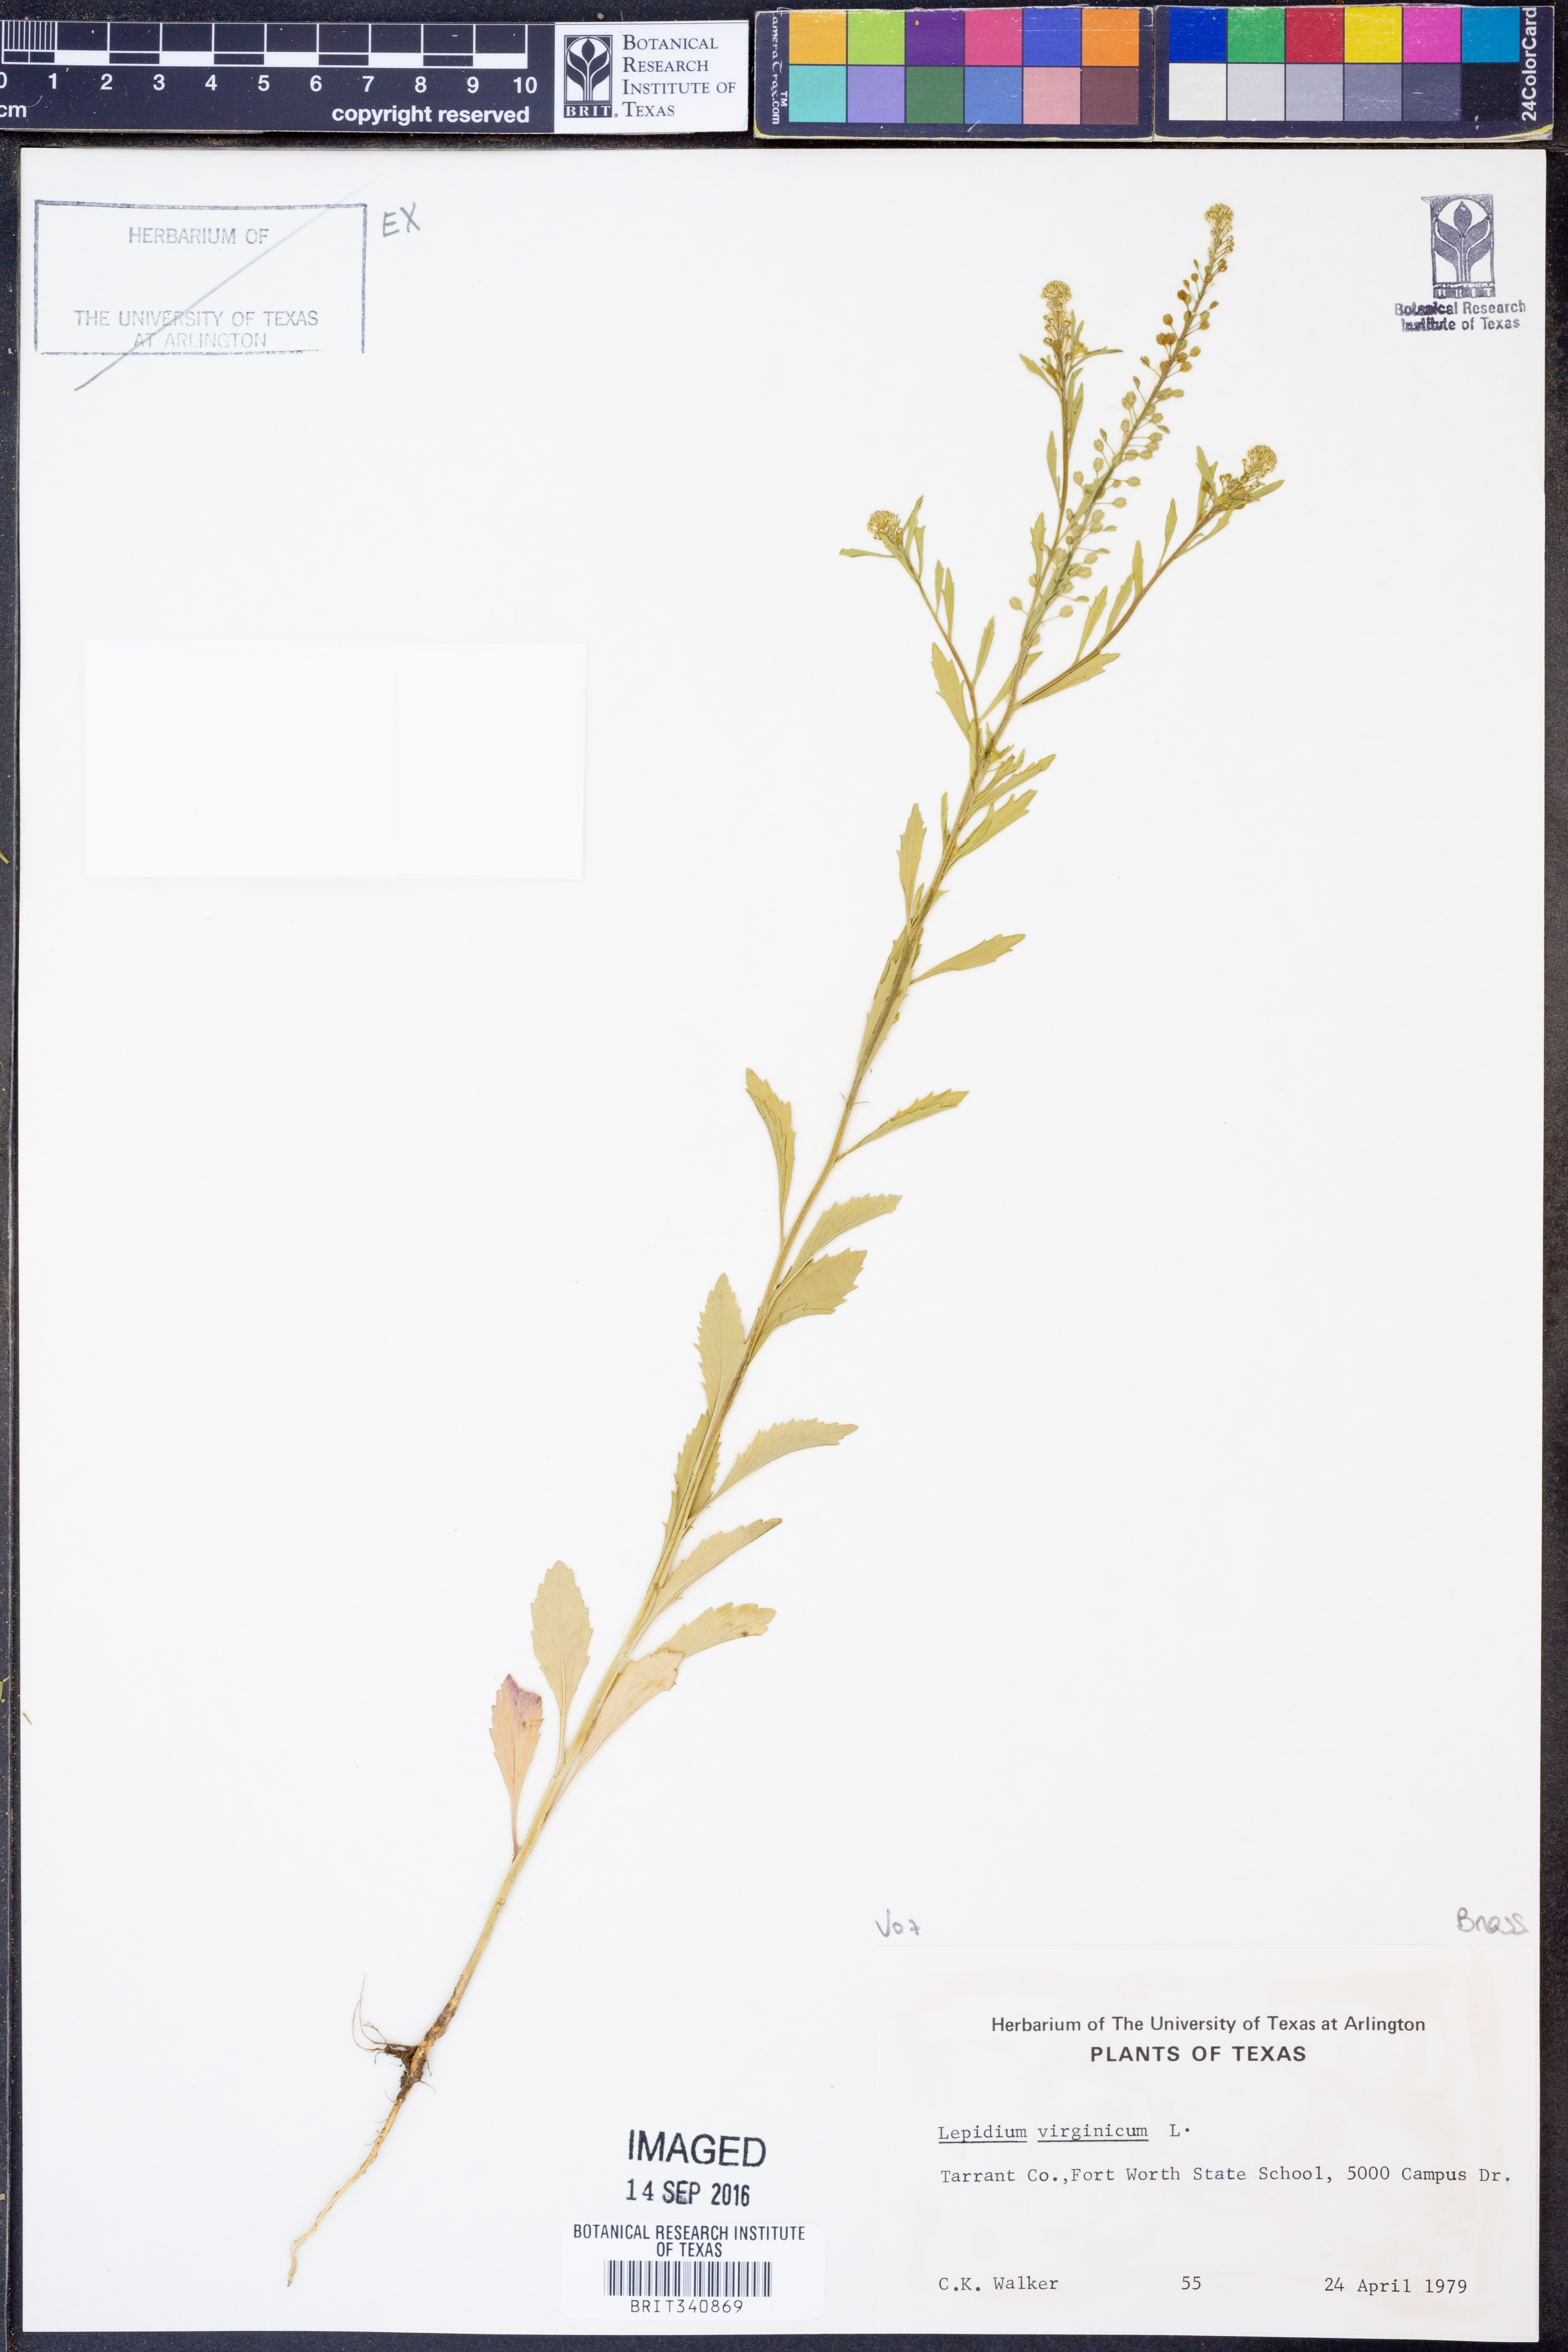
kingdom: Plantae
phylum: Tracheophyta
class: Magnoliopsida
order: Brassicales
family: Brassicaceae
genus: Lepidium
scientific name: Lepidium virginicum
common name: Least pepperwort
